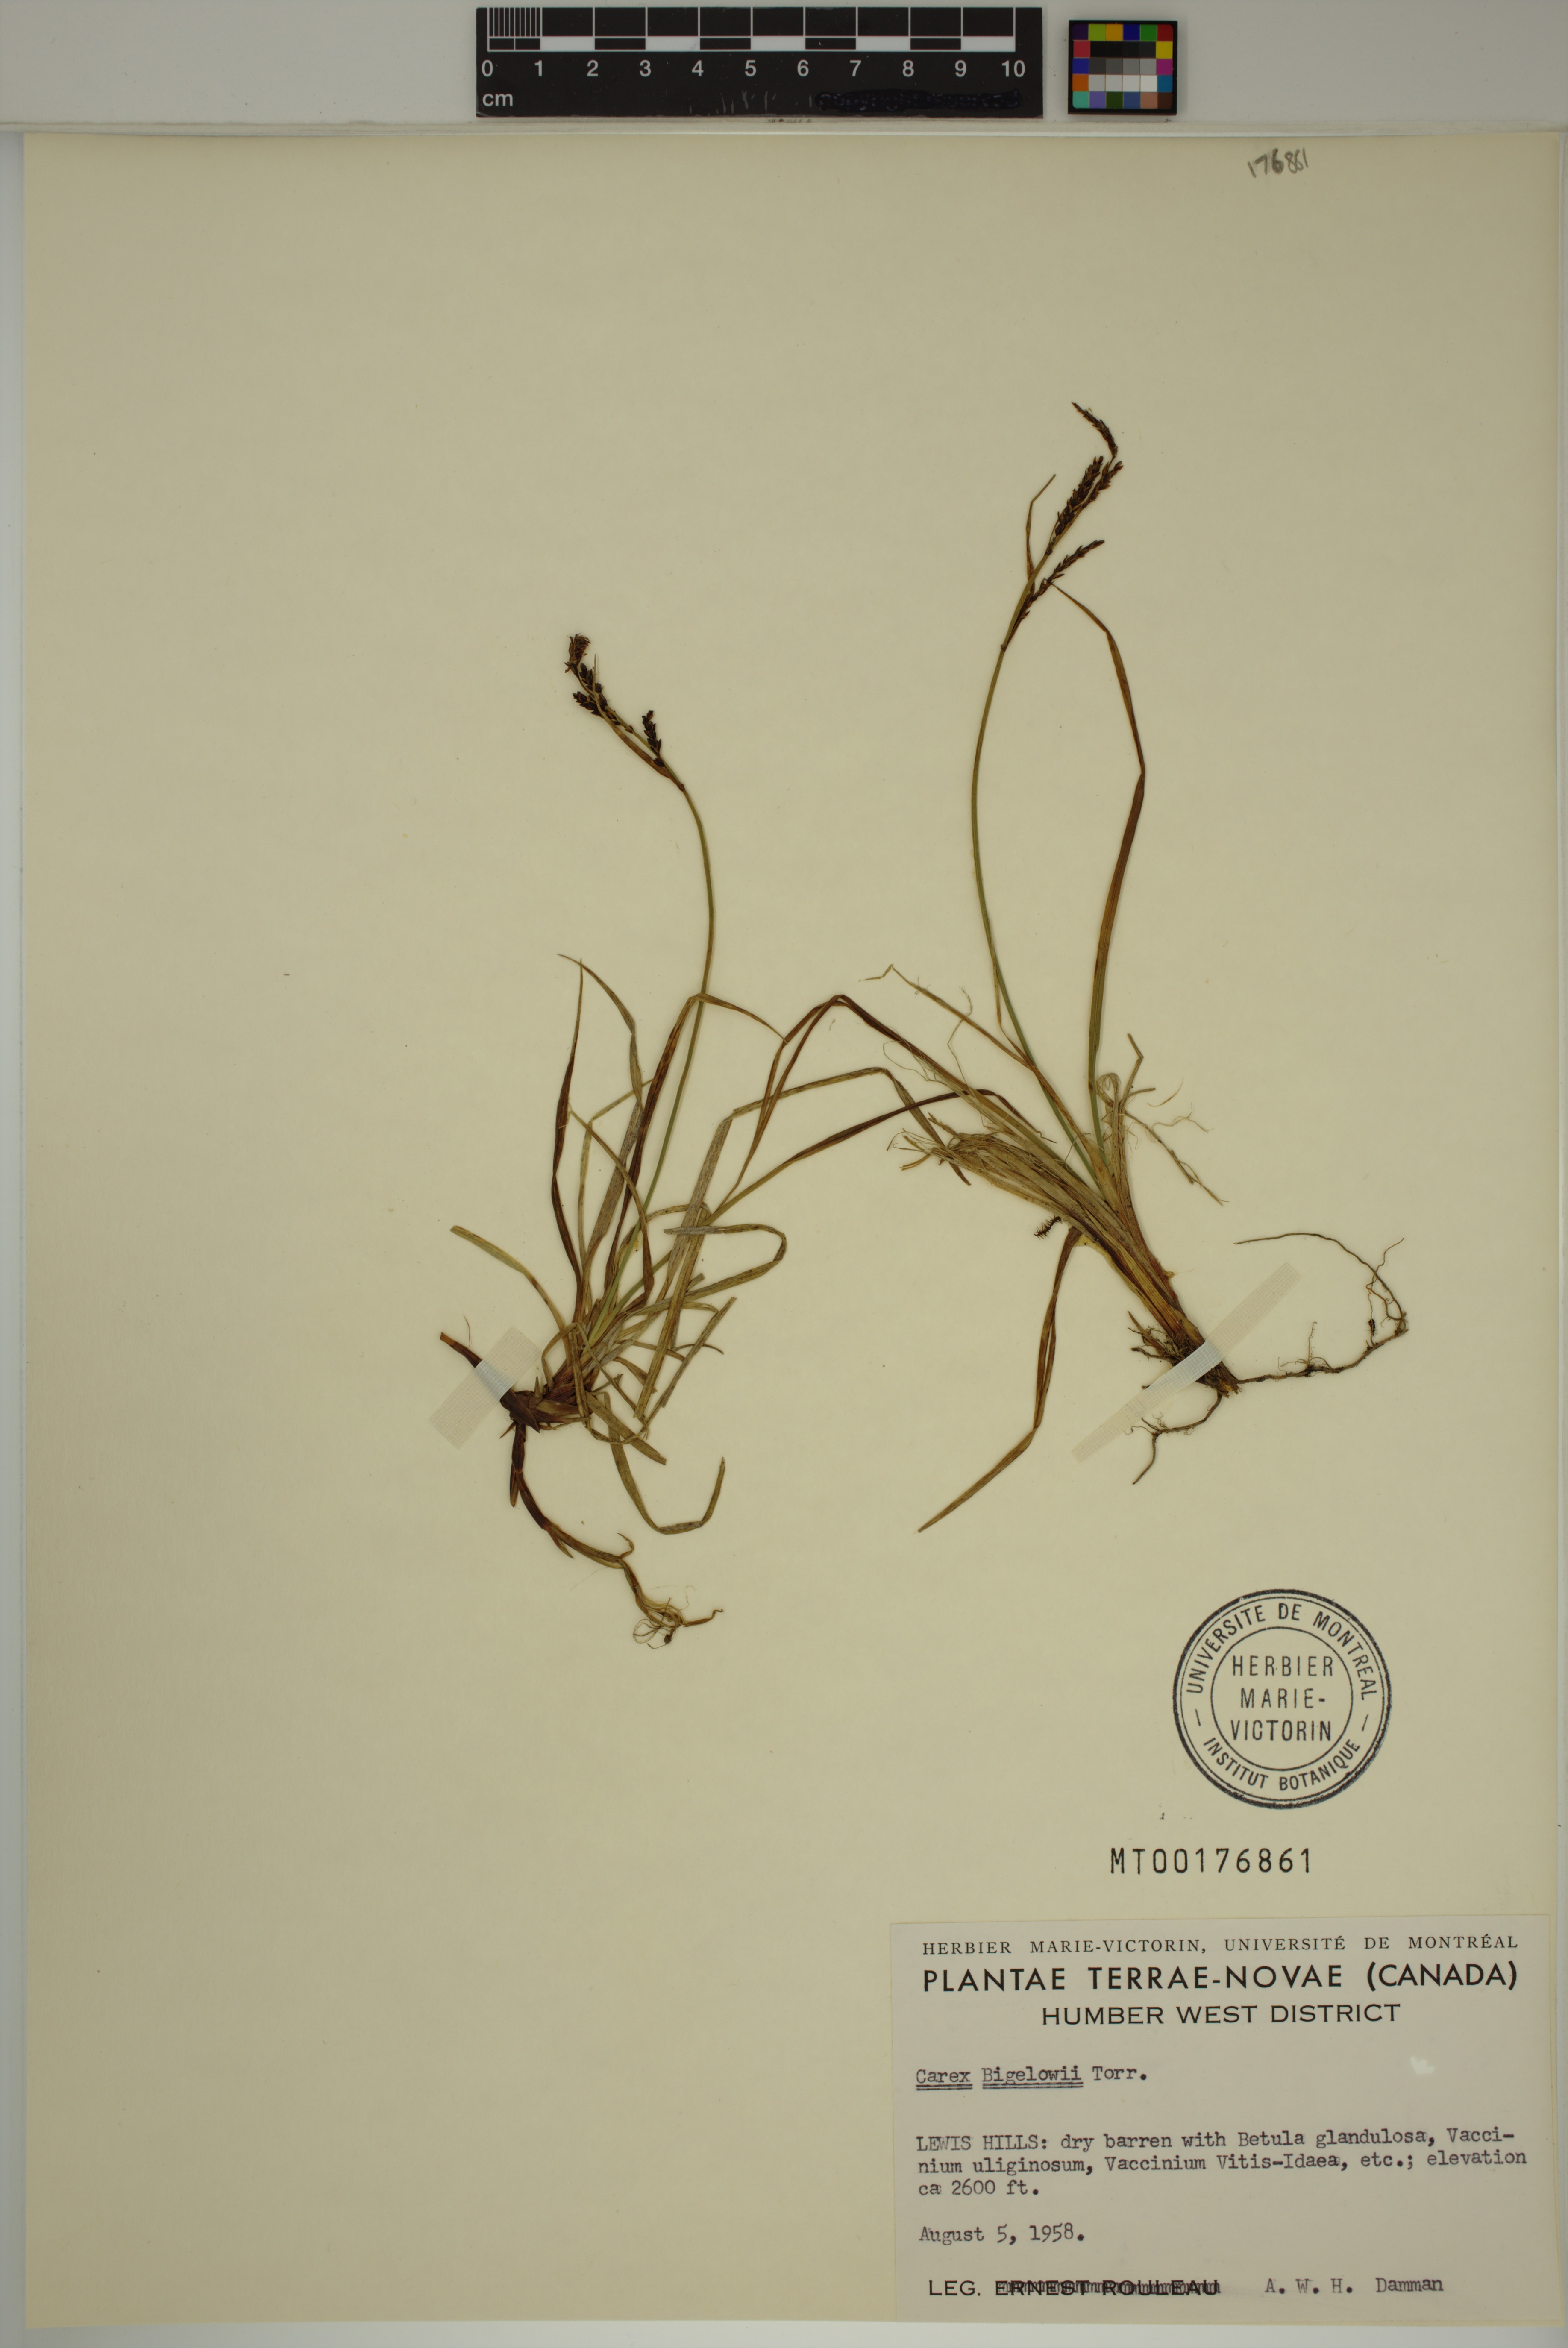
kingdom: Plantae
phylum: Tracheophyta
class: Liliopsida
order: Poales
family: Cyperaceae
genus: Carex
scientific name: Carex bigelowii
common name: Stiff sedge
